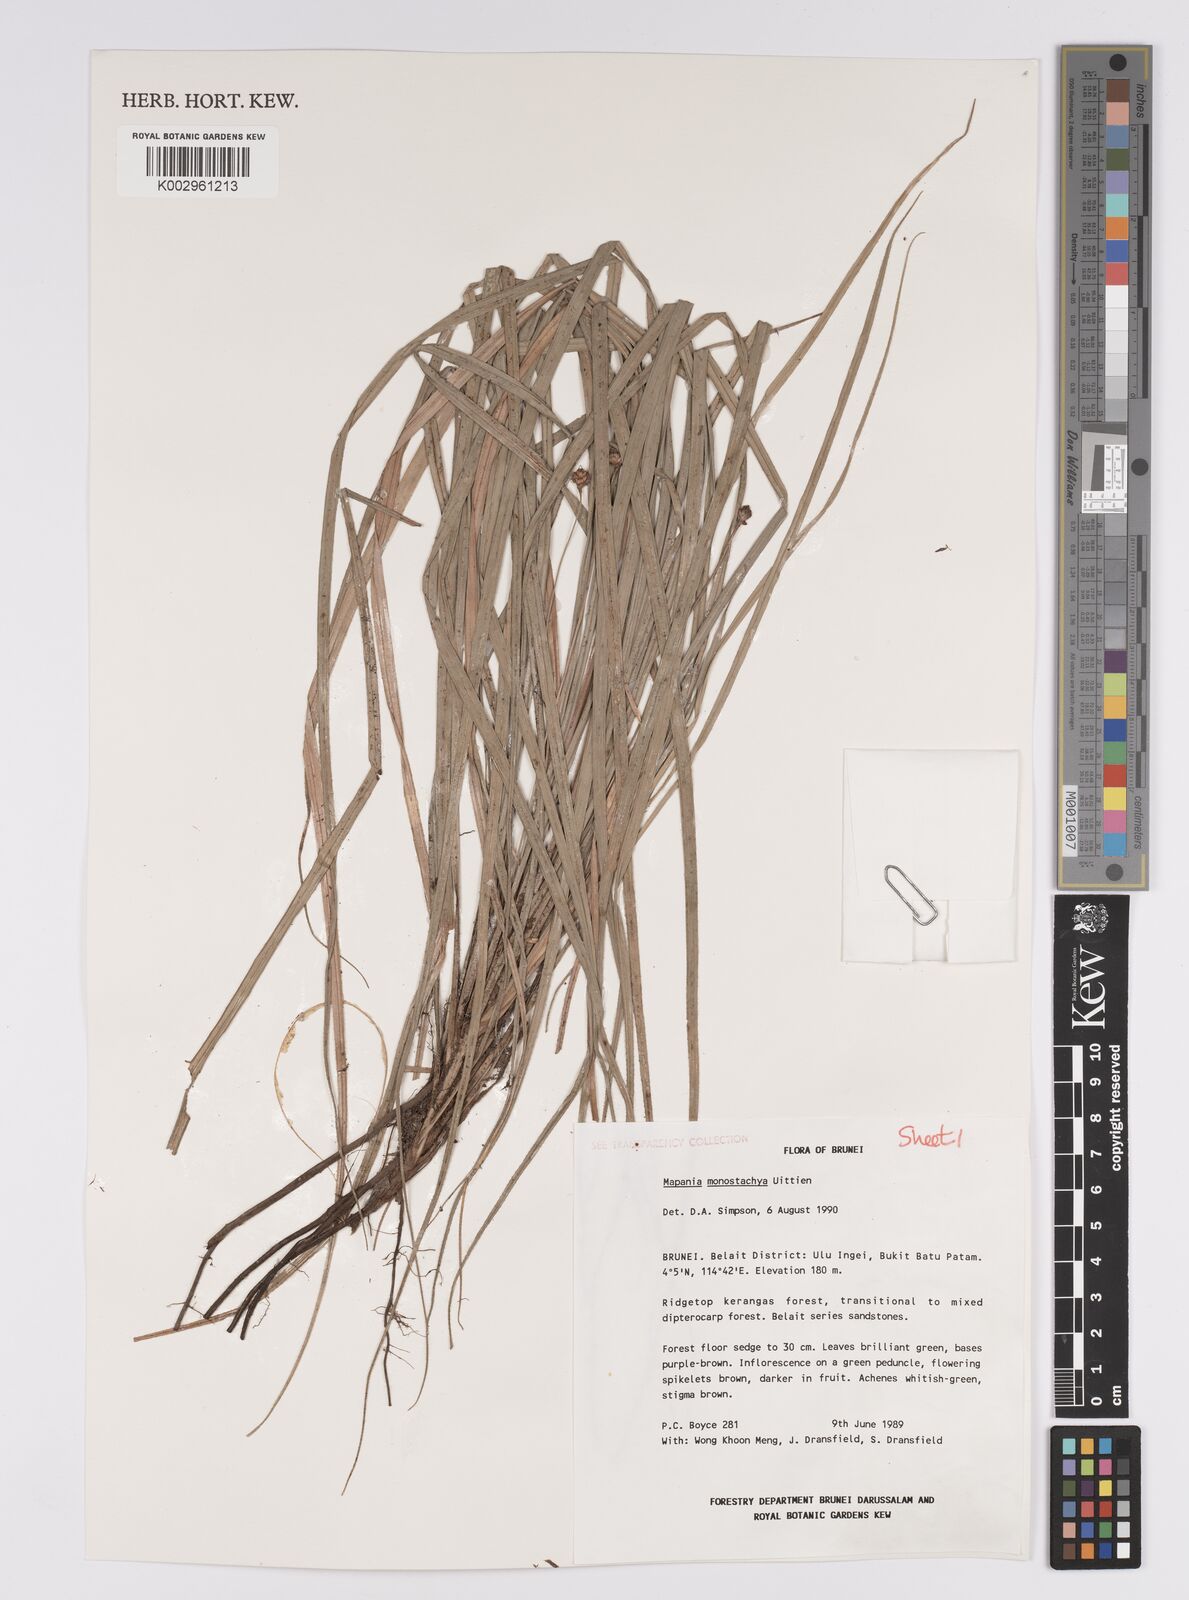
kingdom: Plantae
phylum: Tracheophyta
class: Liliopsida
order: Poales
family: Cyperaceae
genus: Mapania
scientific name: Mapania monostachya
